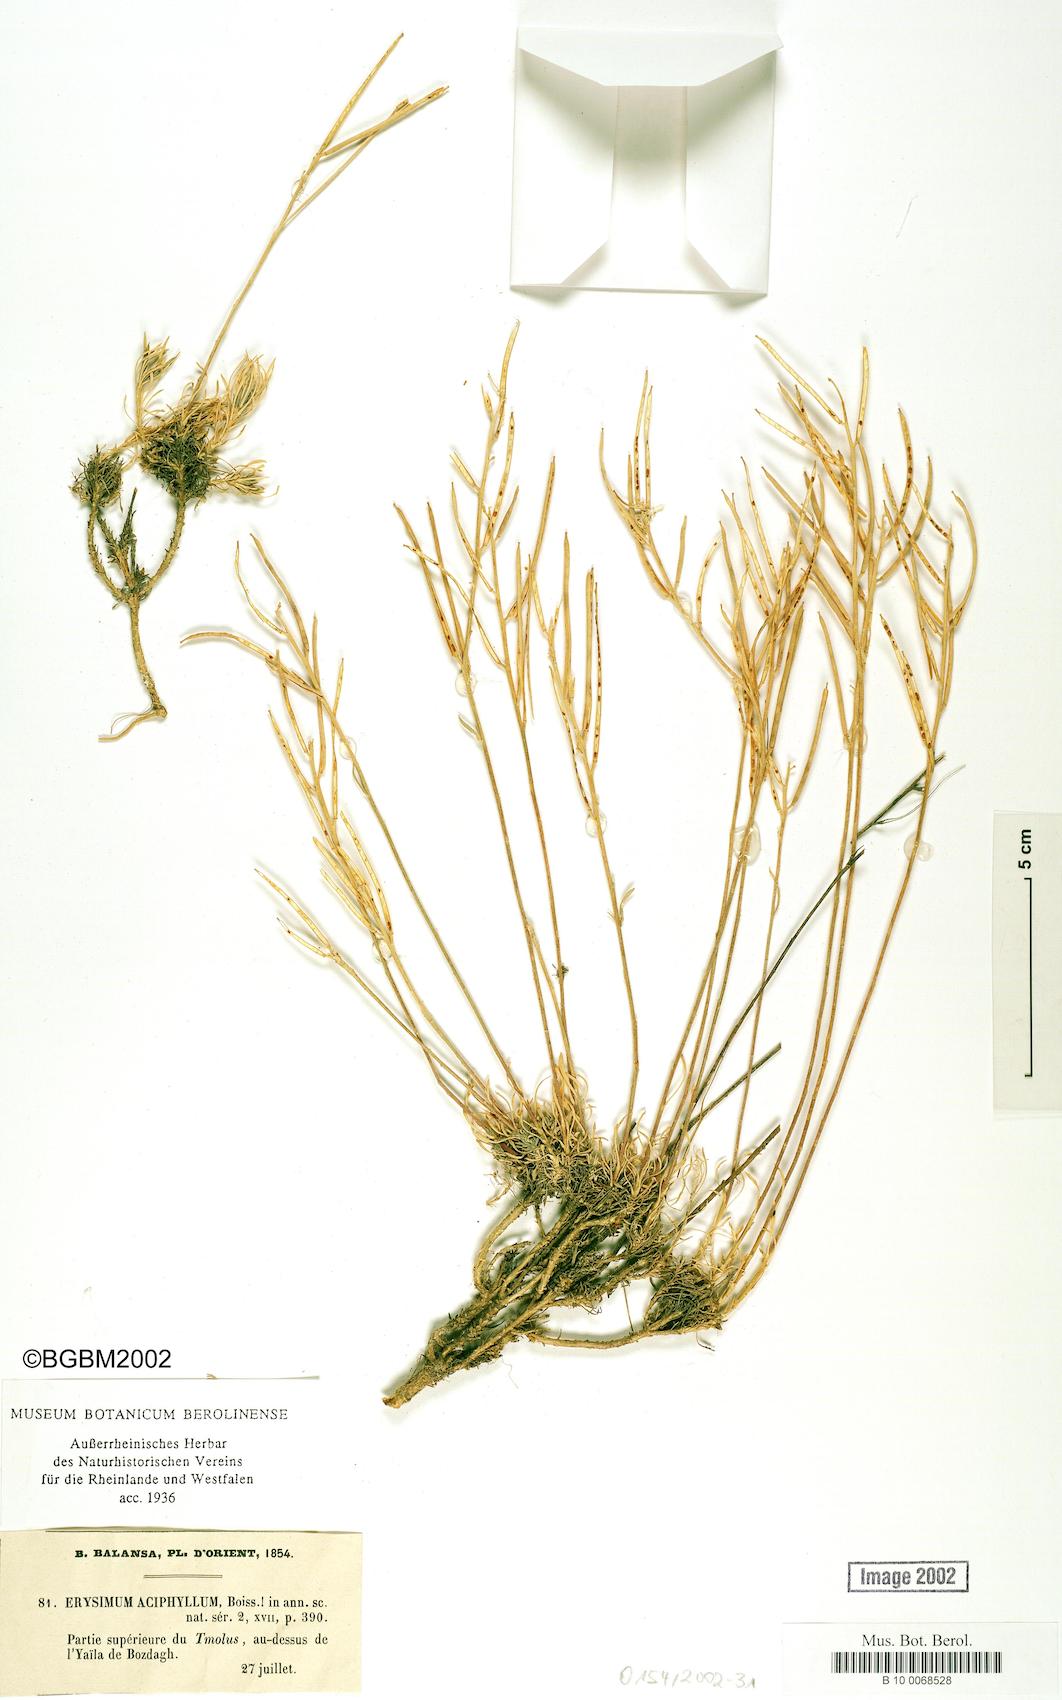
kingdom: Plantae
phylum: Tracheophyta
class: Magnoliopsida
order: Brassicales
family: Brassicaceae
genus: Erysimum
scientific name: Erysimum leptocarpum
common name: Thin-fruited tracle mustard
